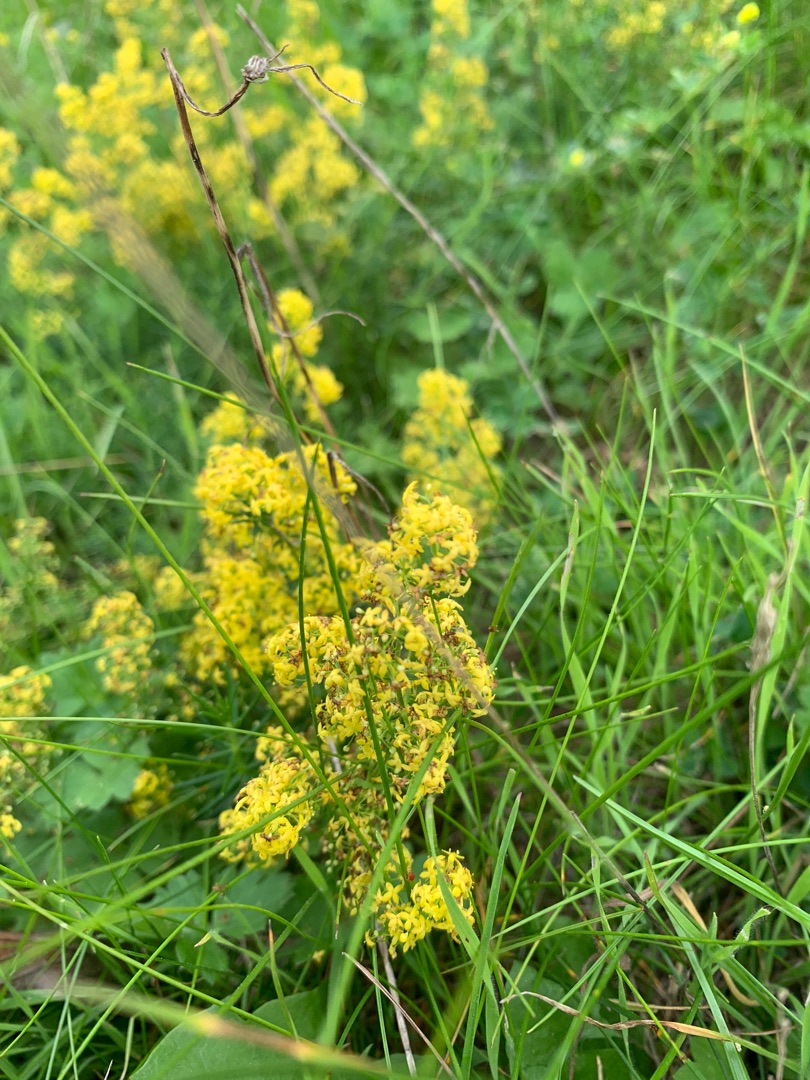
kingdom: Plantae
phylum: Tracheophyta
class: Magnoliopsida
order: Gentianales
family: Rubiaceae
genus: Galium
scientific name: Galium verum
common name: Gul snerre
